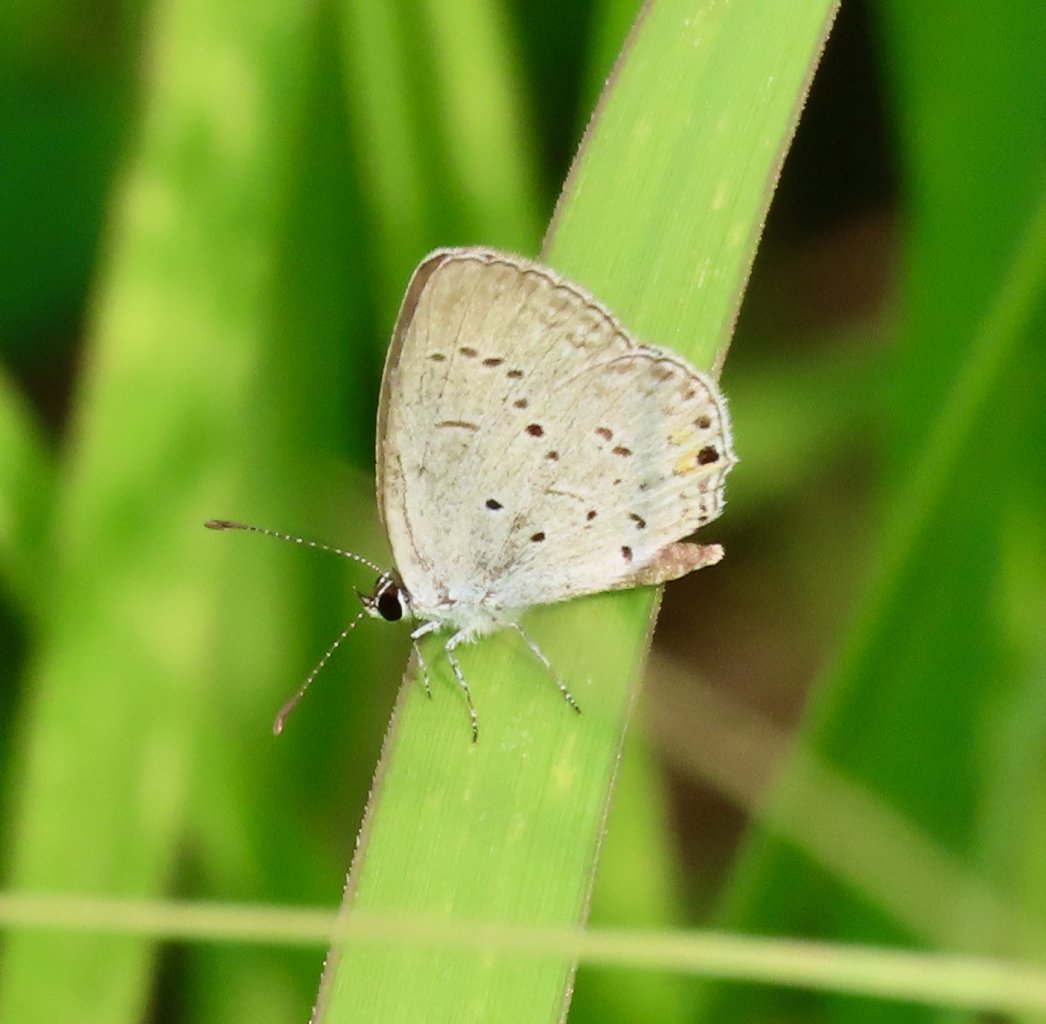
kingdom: Animalia
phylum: Arthropoda
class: Insecta
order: Lepidoptera
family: Lycaenidae
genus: Elkalyce
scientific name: Elkalyce comyntas
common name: Eastern Tailed-Blue
